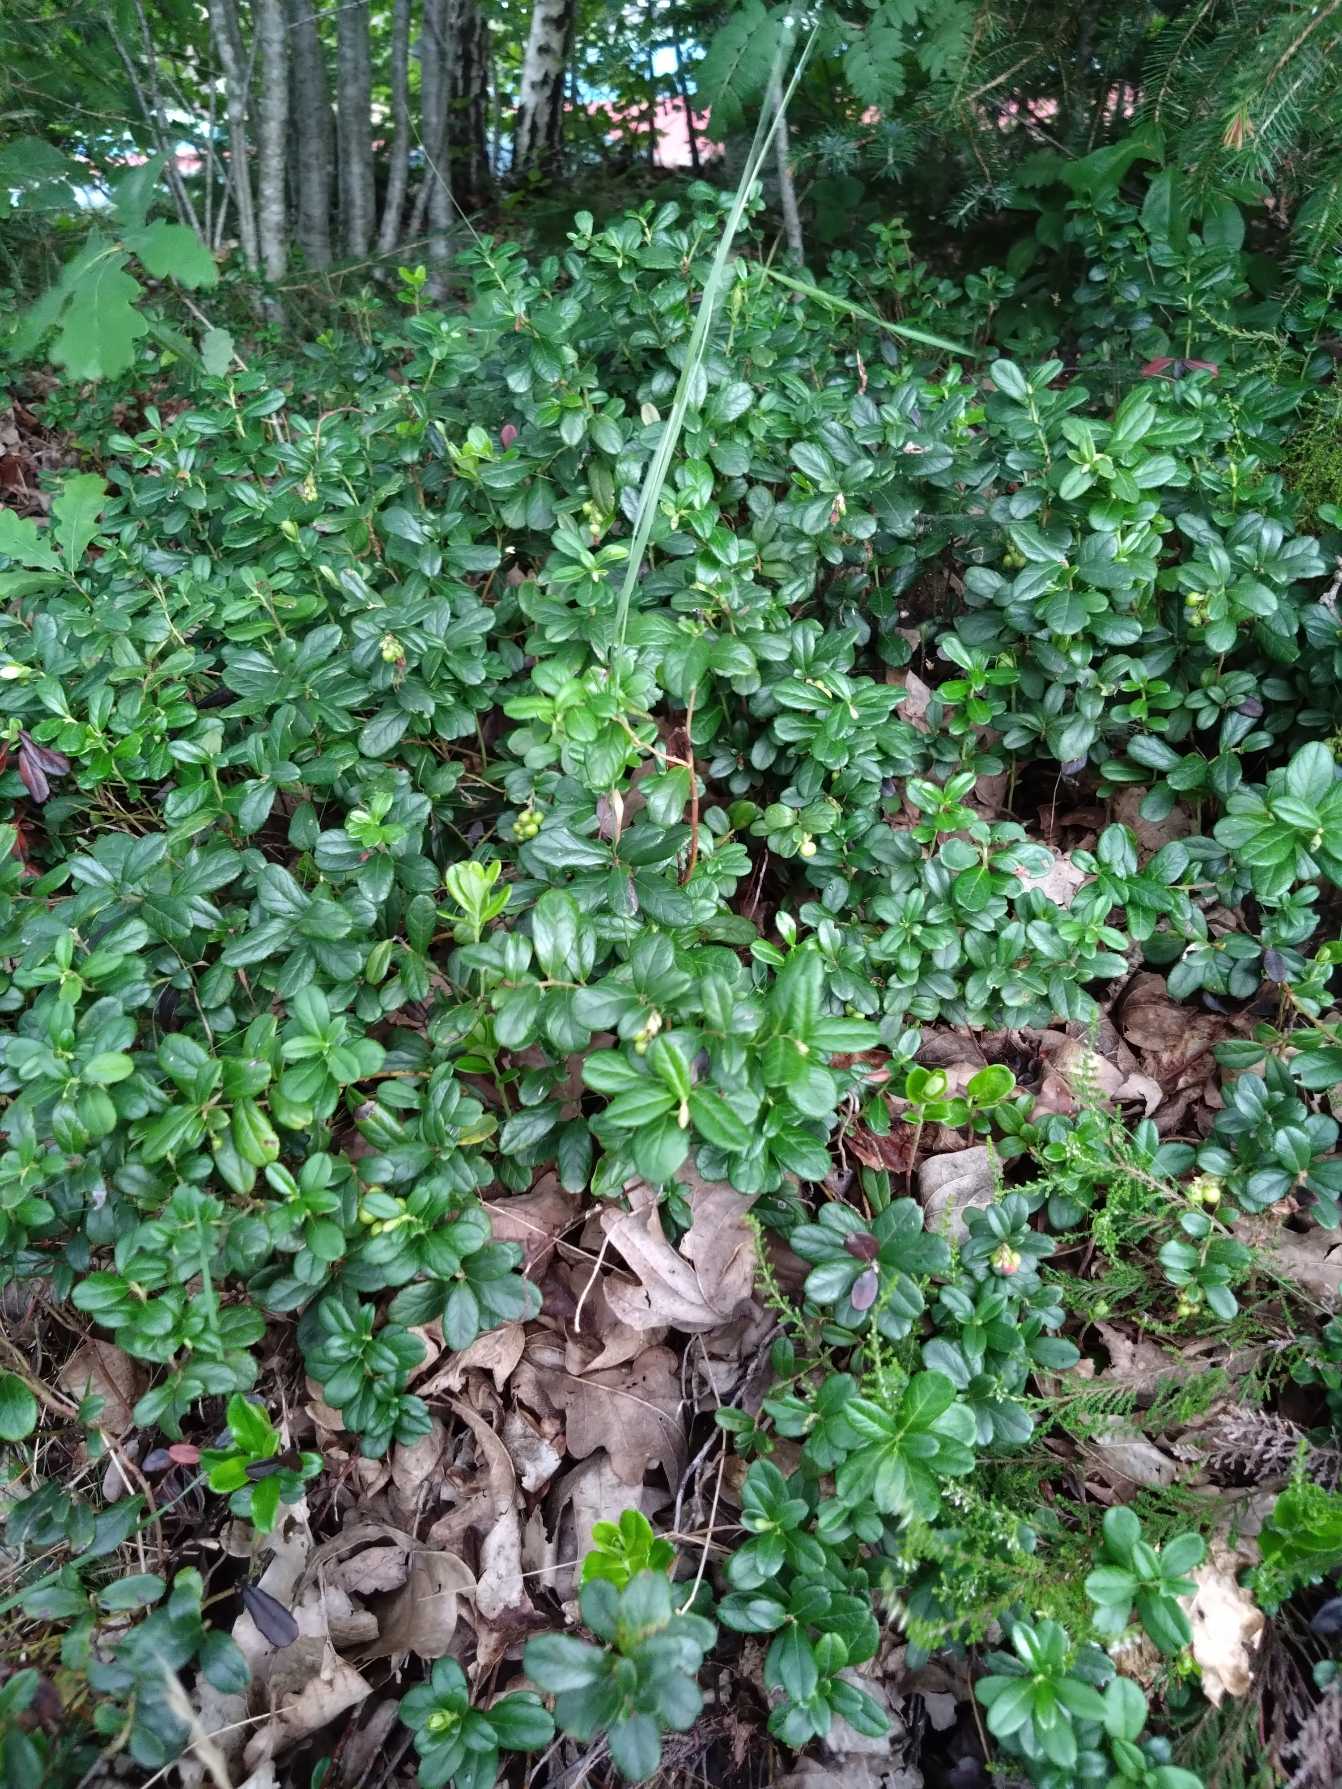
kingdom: Plantae
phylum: Tracheophyta
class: Magnoliopsida
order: Ericales
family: Ericaceae
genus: Vaccinium
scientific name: Vaccinium vitis-idaea
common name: Tyttebær
